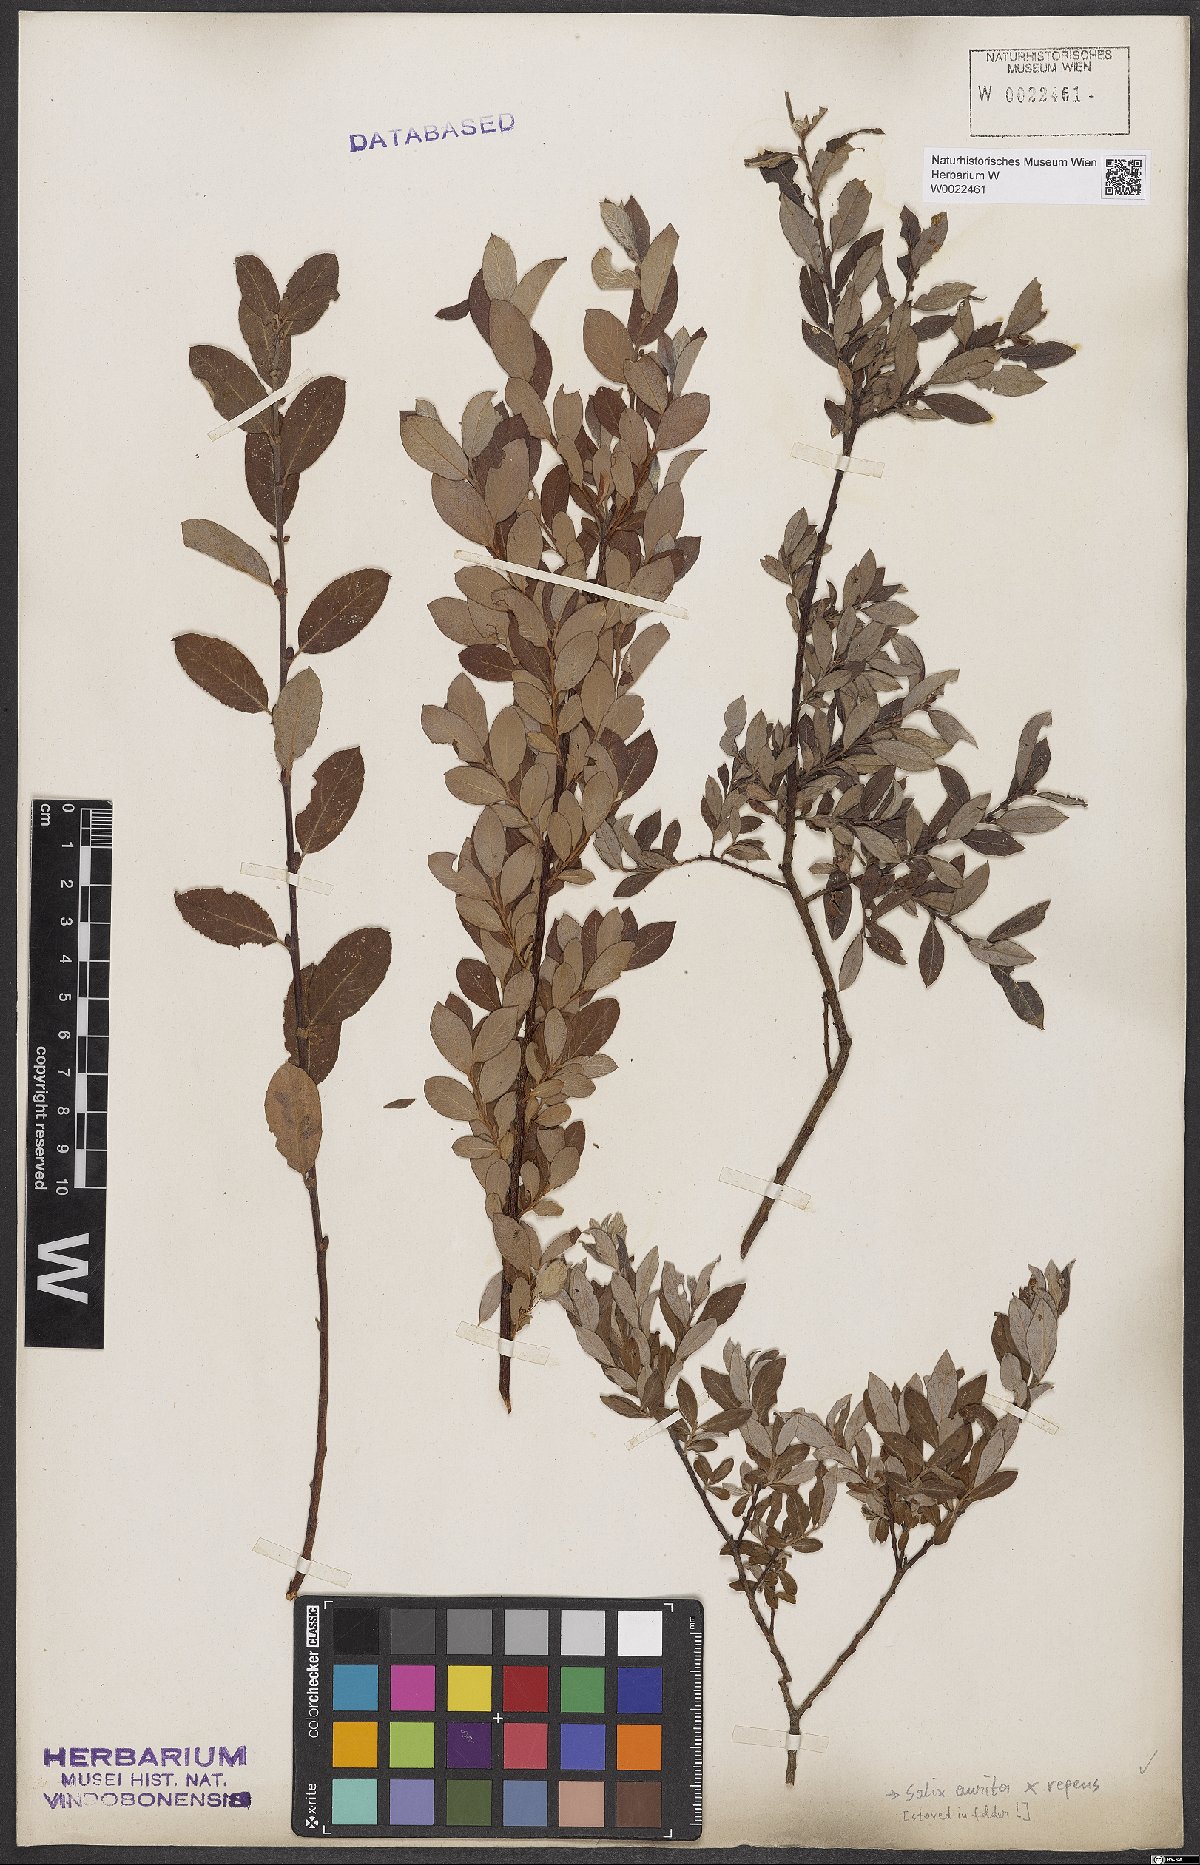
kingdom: Plantae
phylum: Tracheophyta
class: Magnoliopsida
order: Malpighiales
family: Salicaceae
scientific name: Salicaceae
